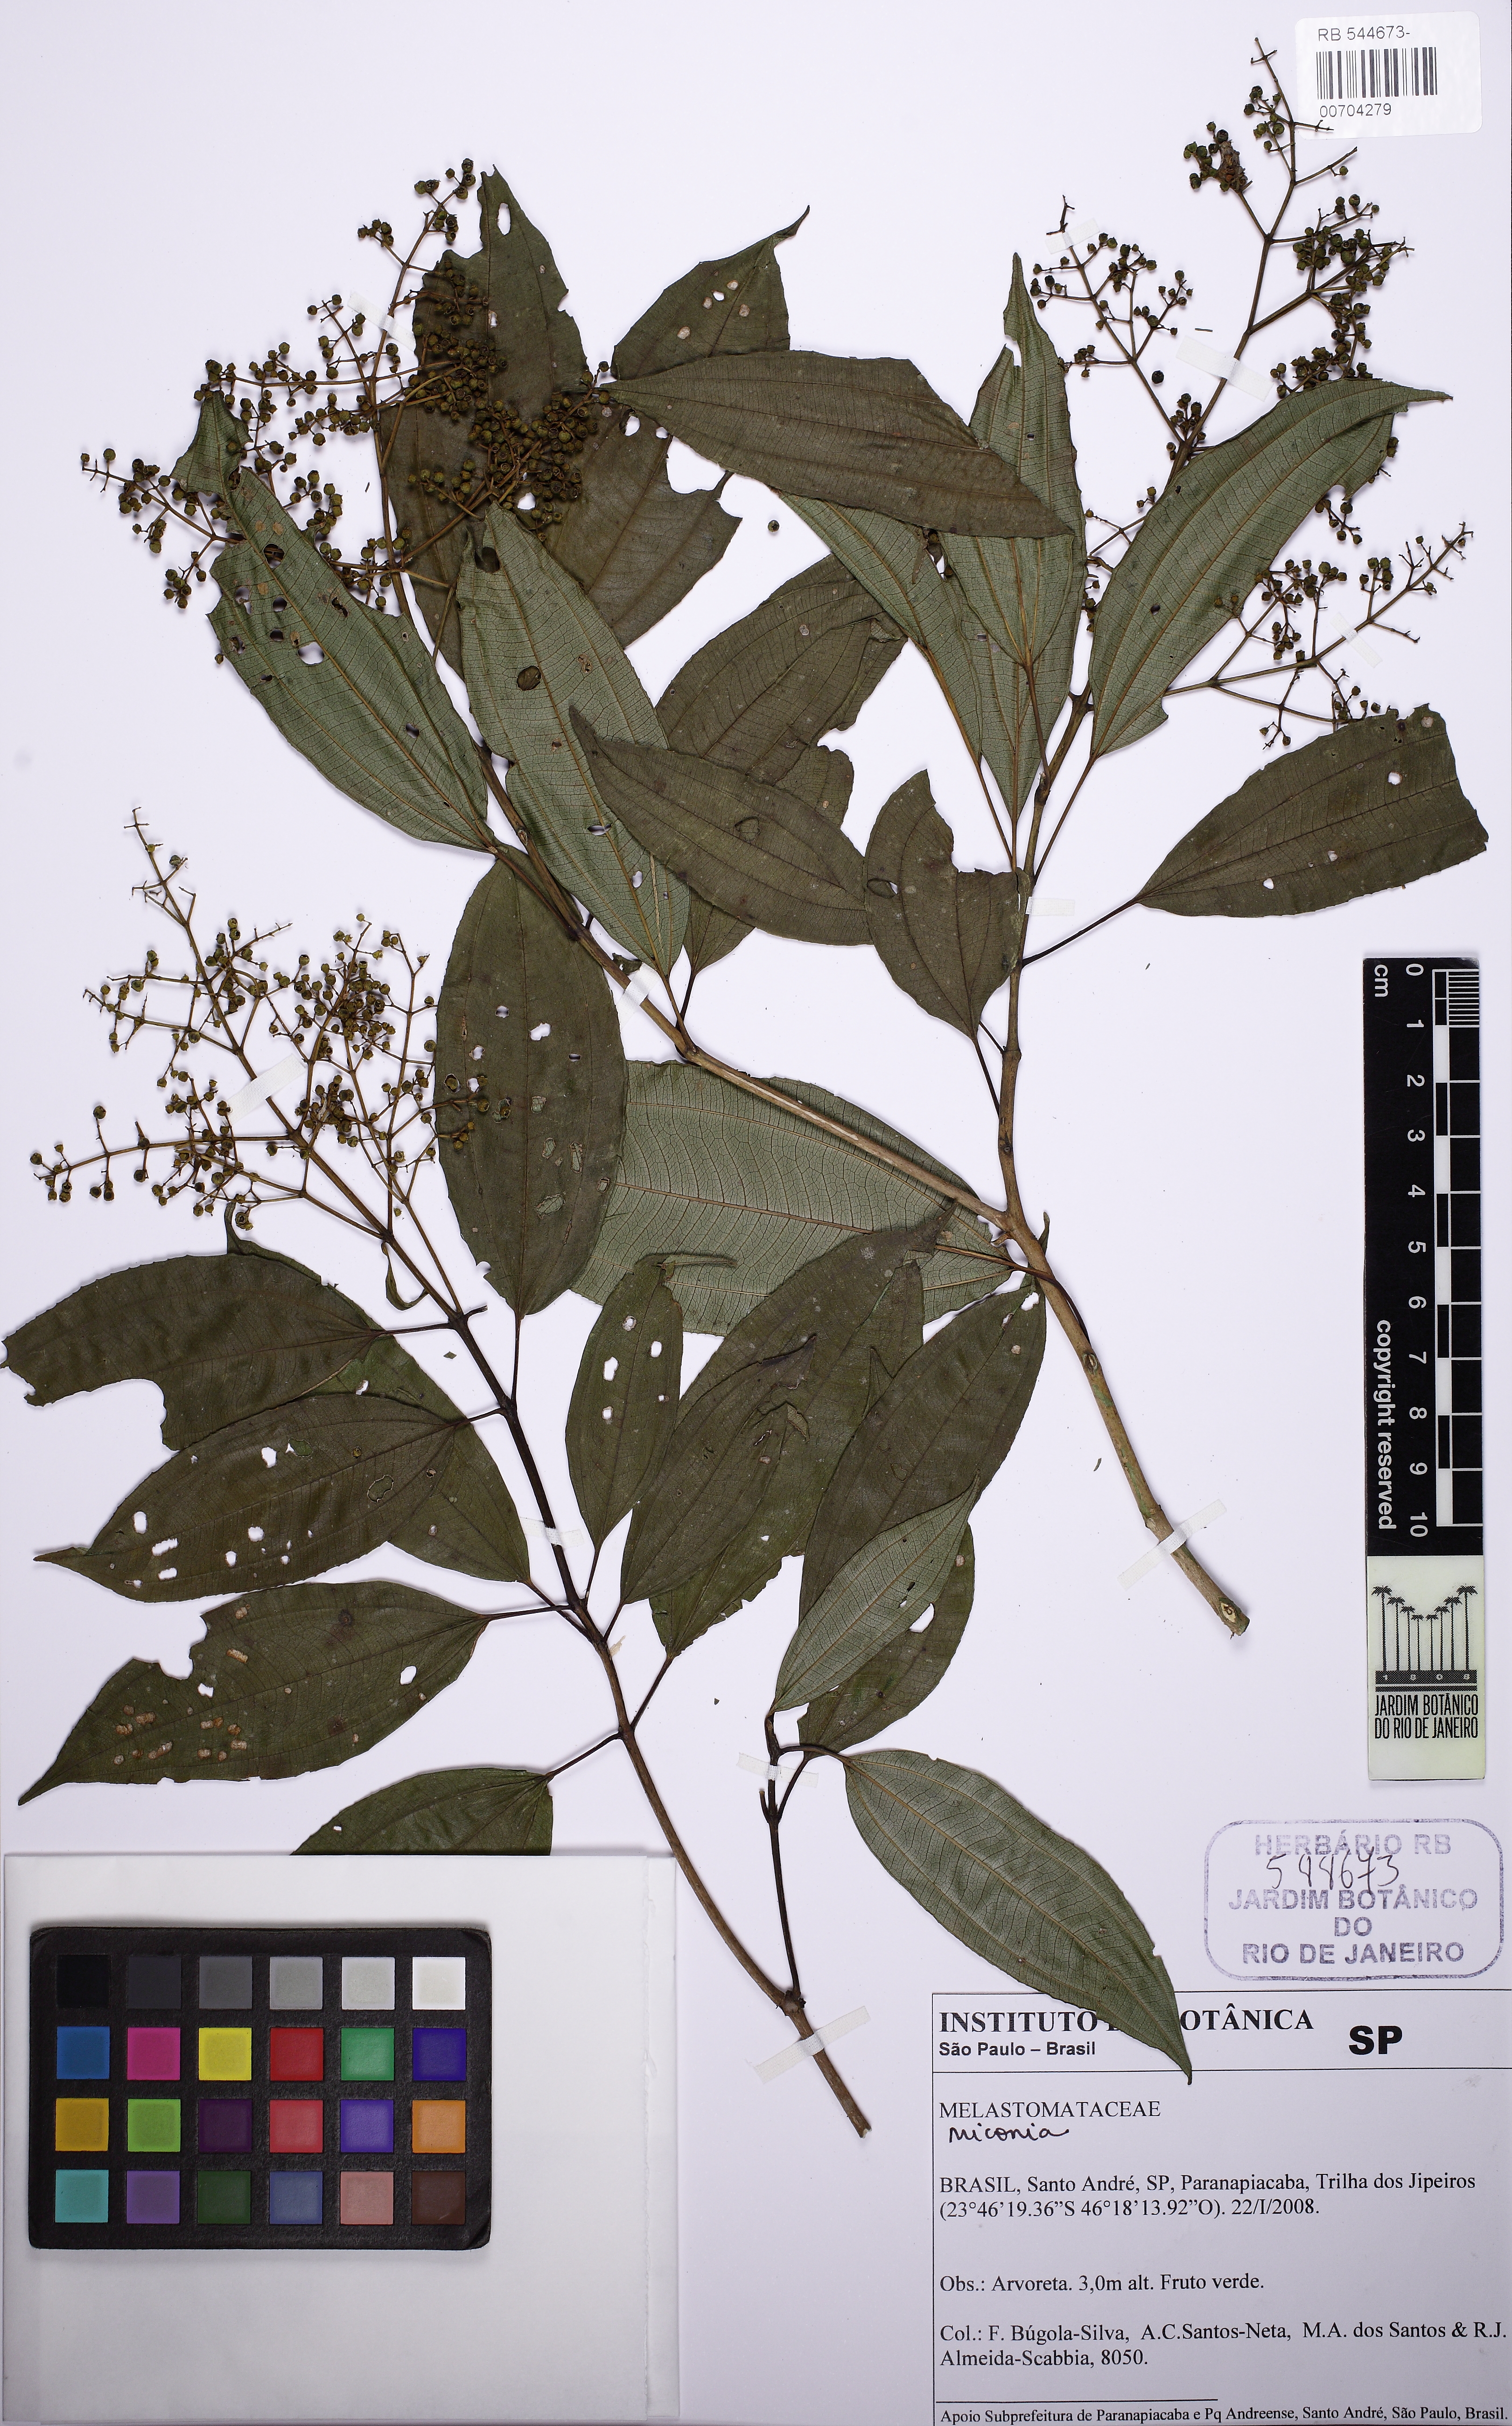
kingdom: Plantae
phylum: Tracheophyta
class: Magnoliopsida
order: Myrtales
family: Melastomataceae
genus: Miconia
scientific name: Miconia theizans
